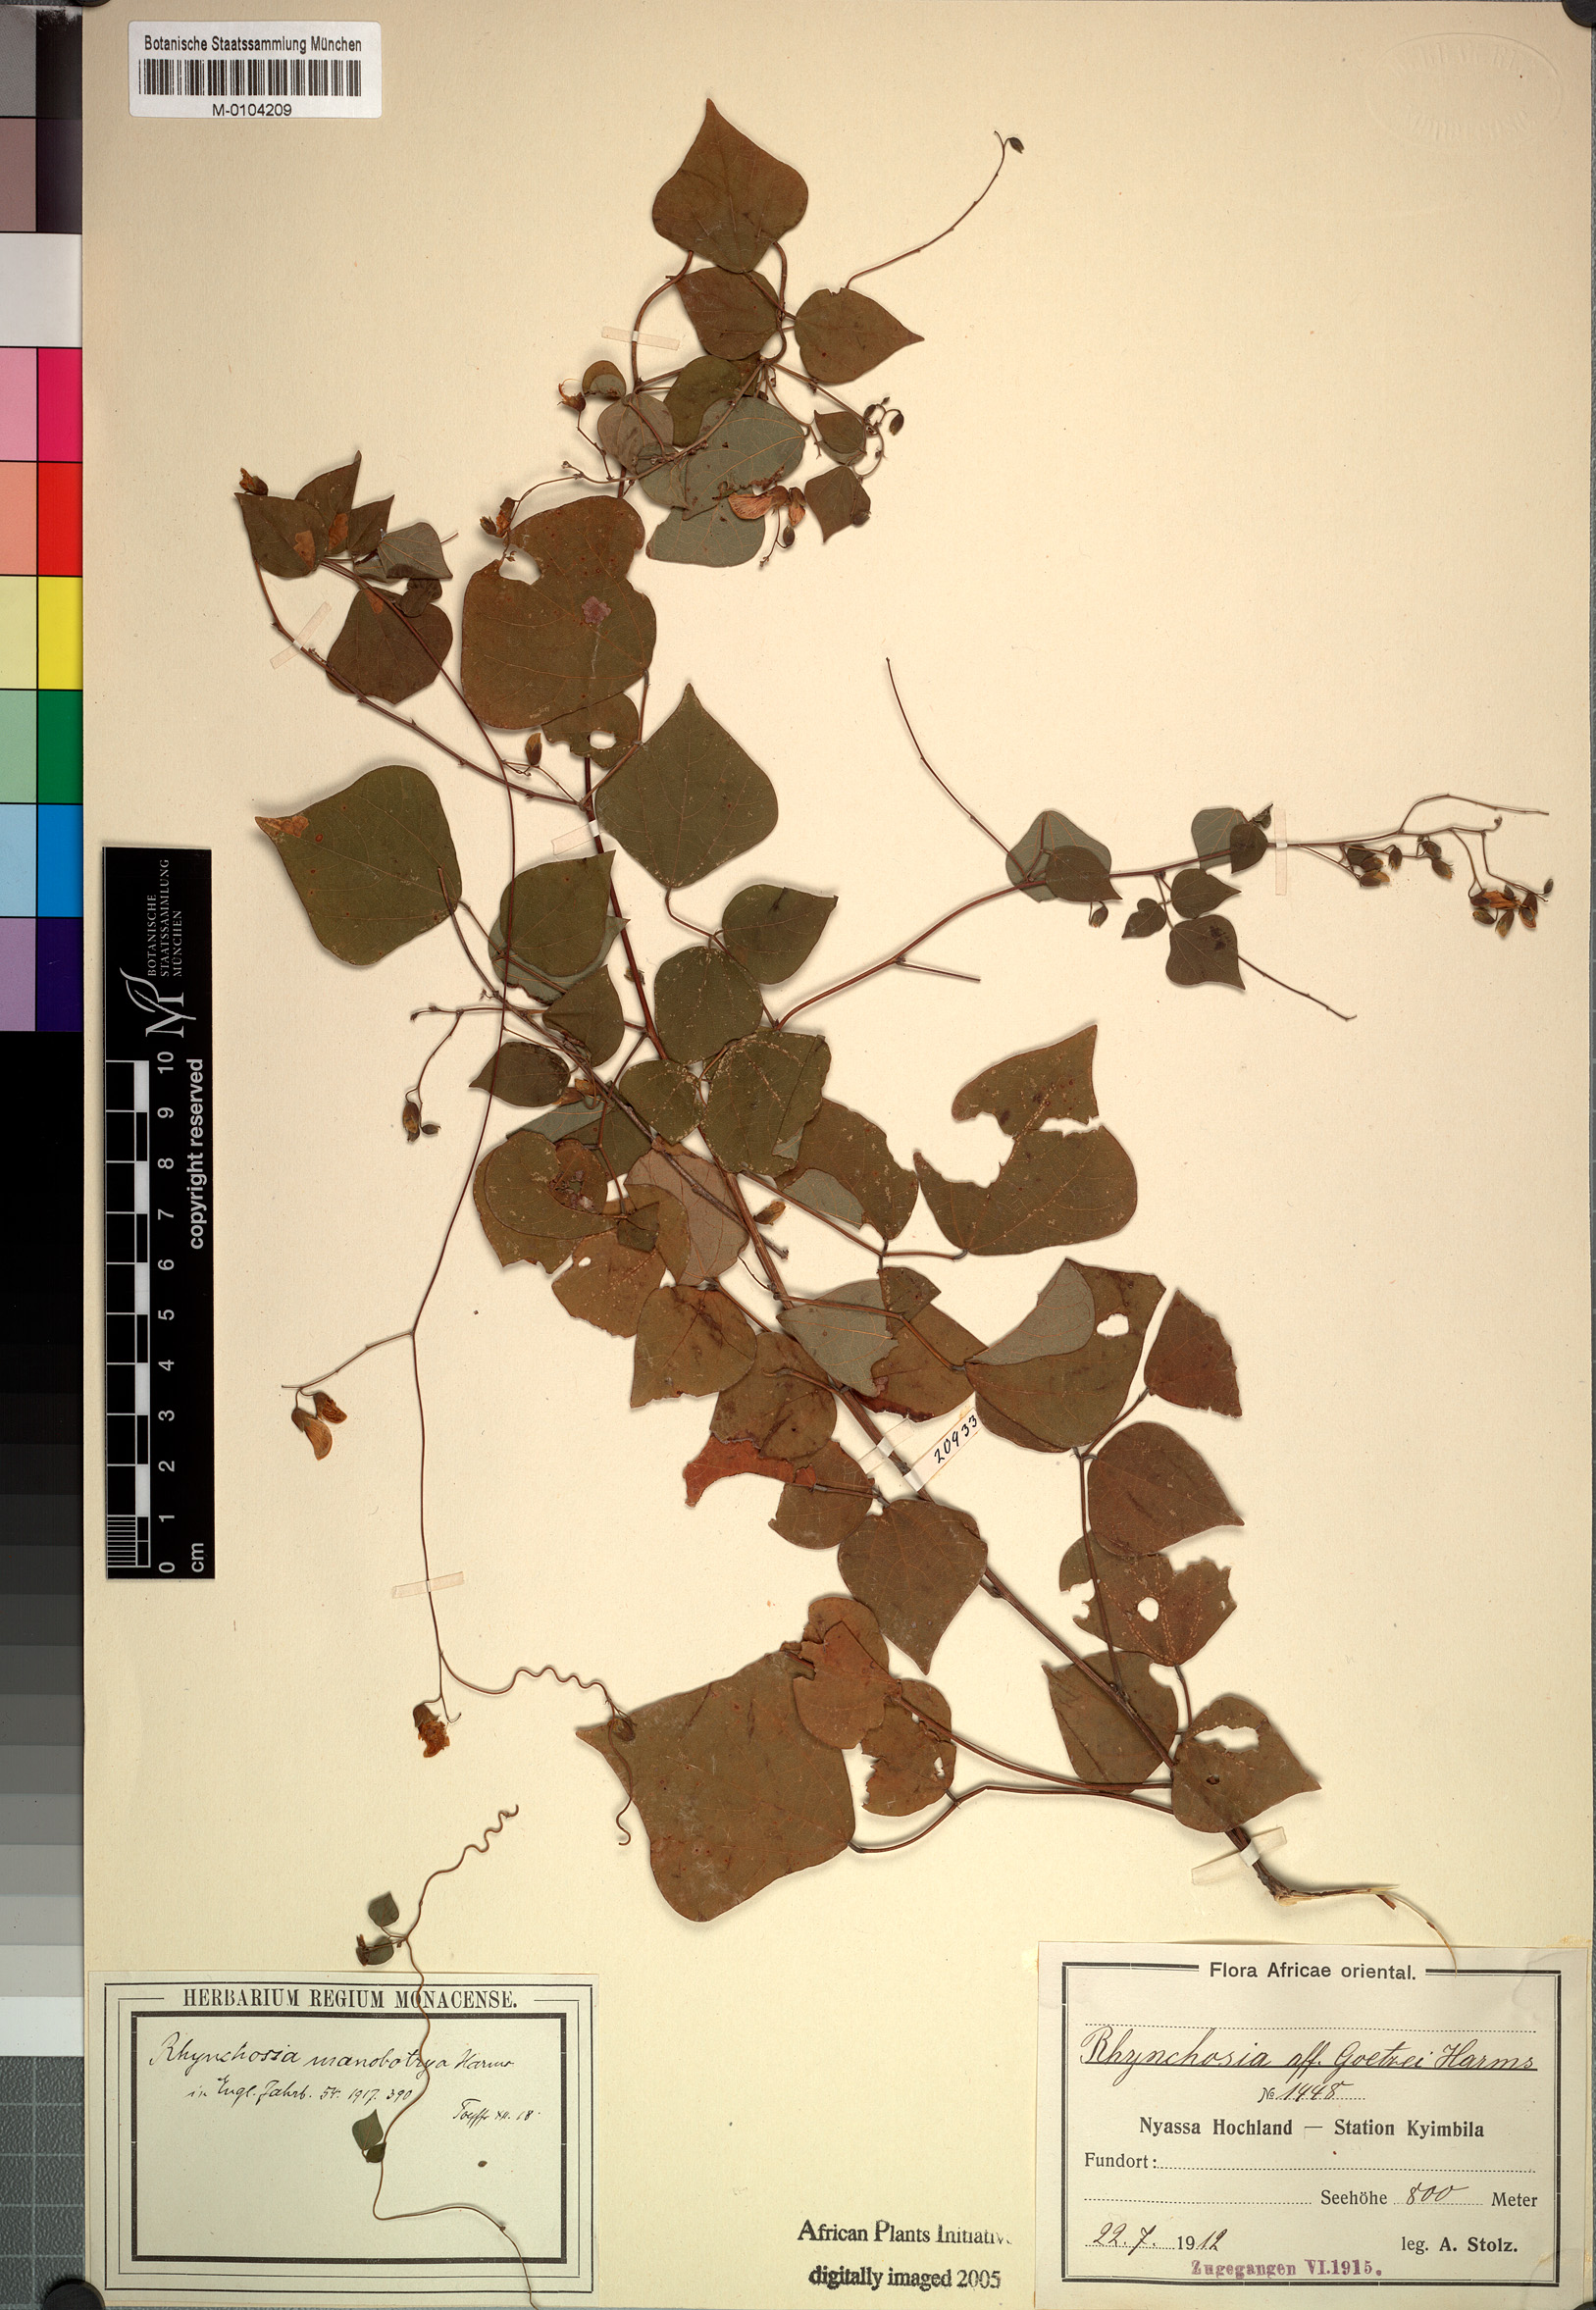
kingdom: Plantae
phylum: Tracheophyta
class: Magnoliopsida
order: Fabales
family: Fabaceae
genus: Rhynchosia
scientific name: Rhynchosia goetzei
